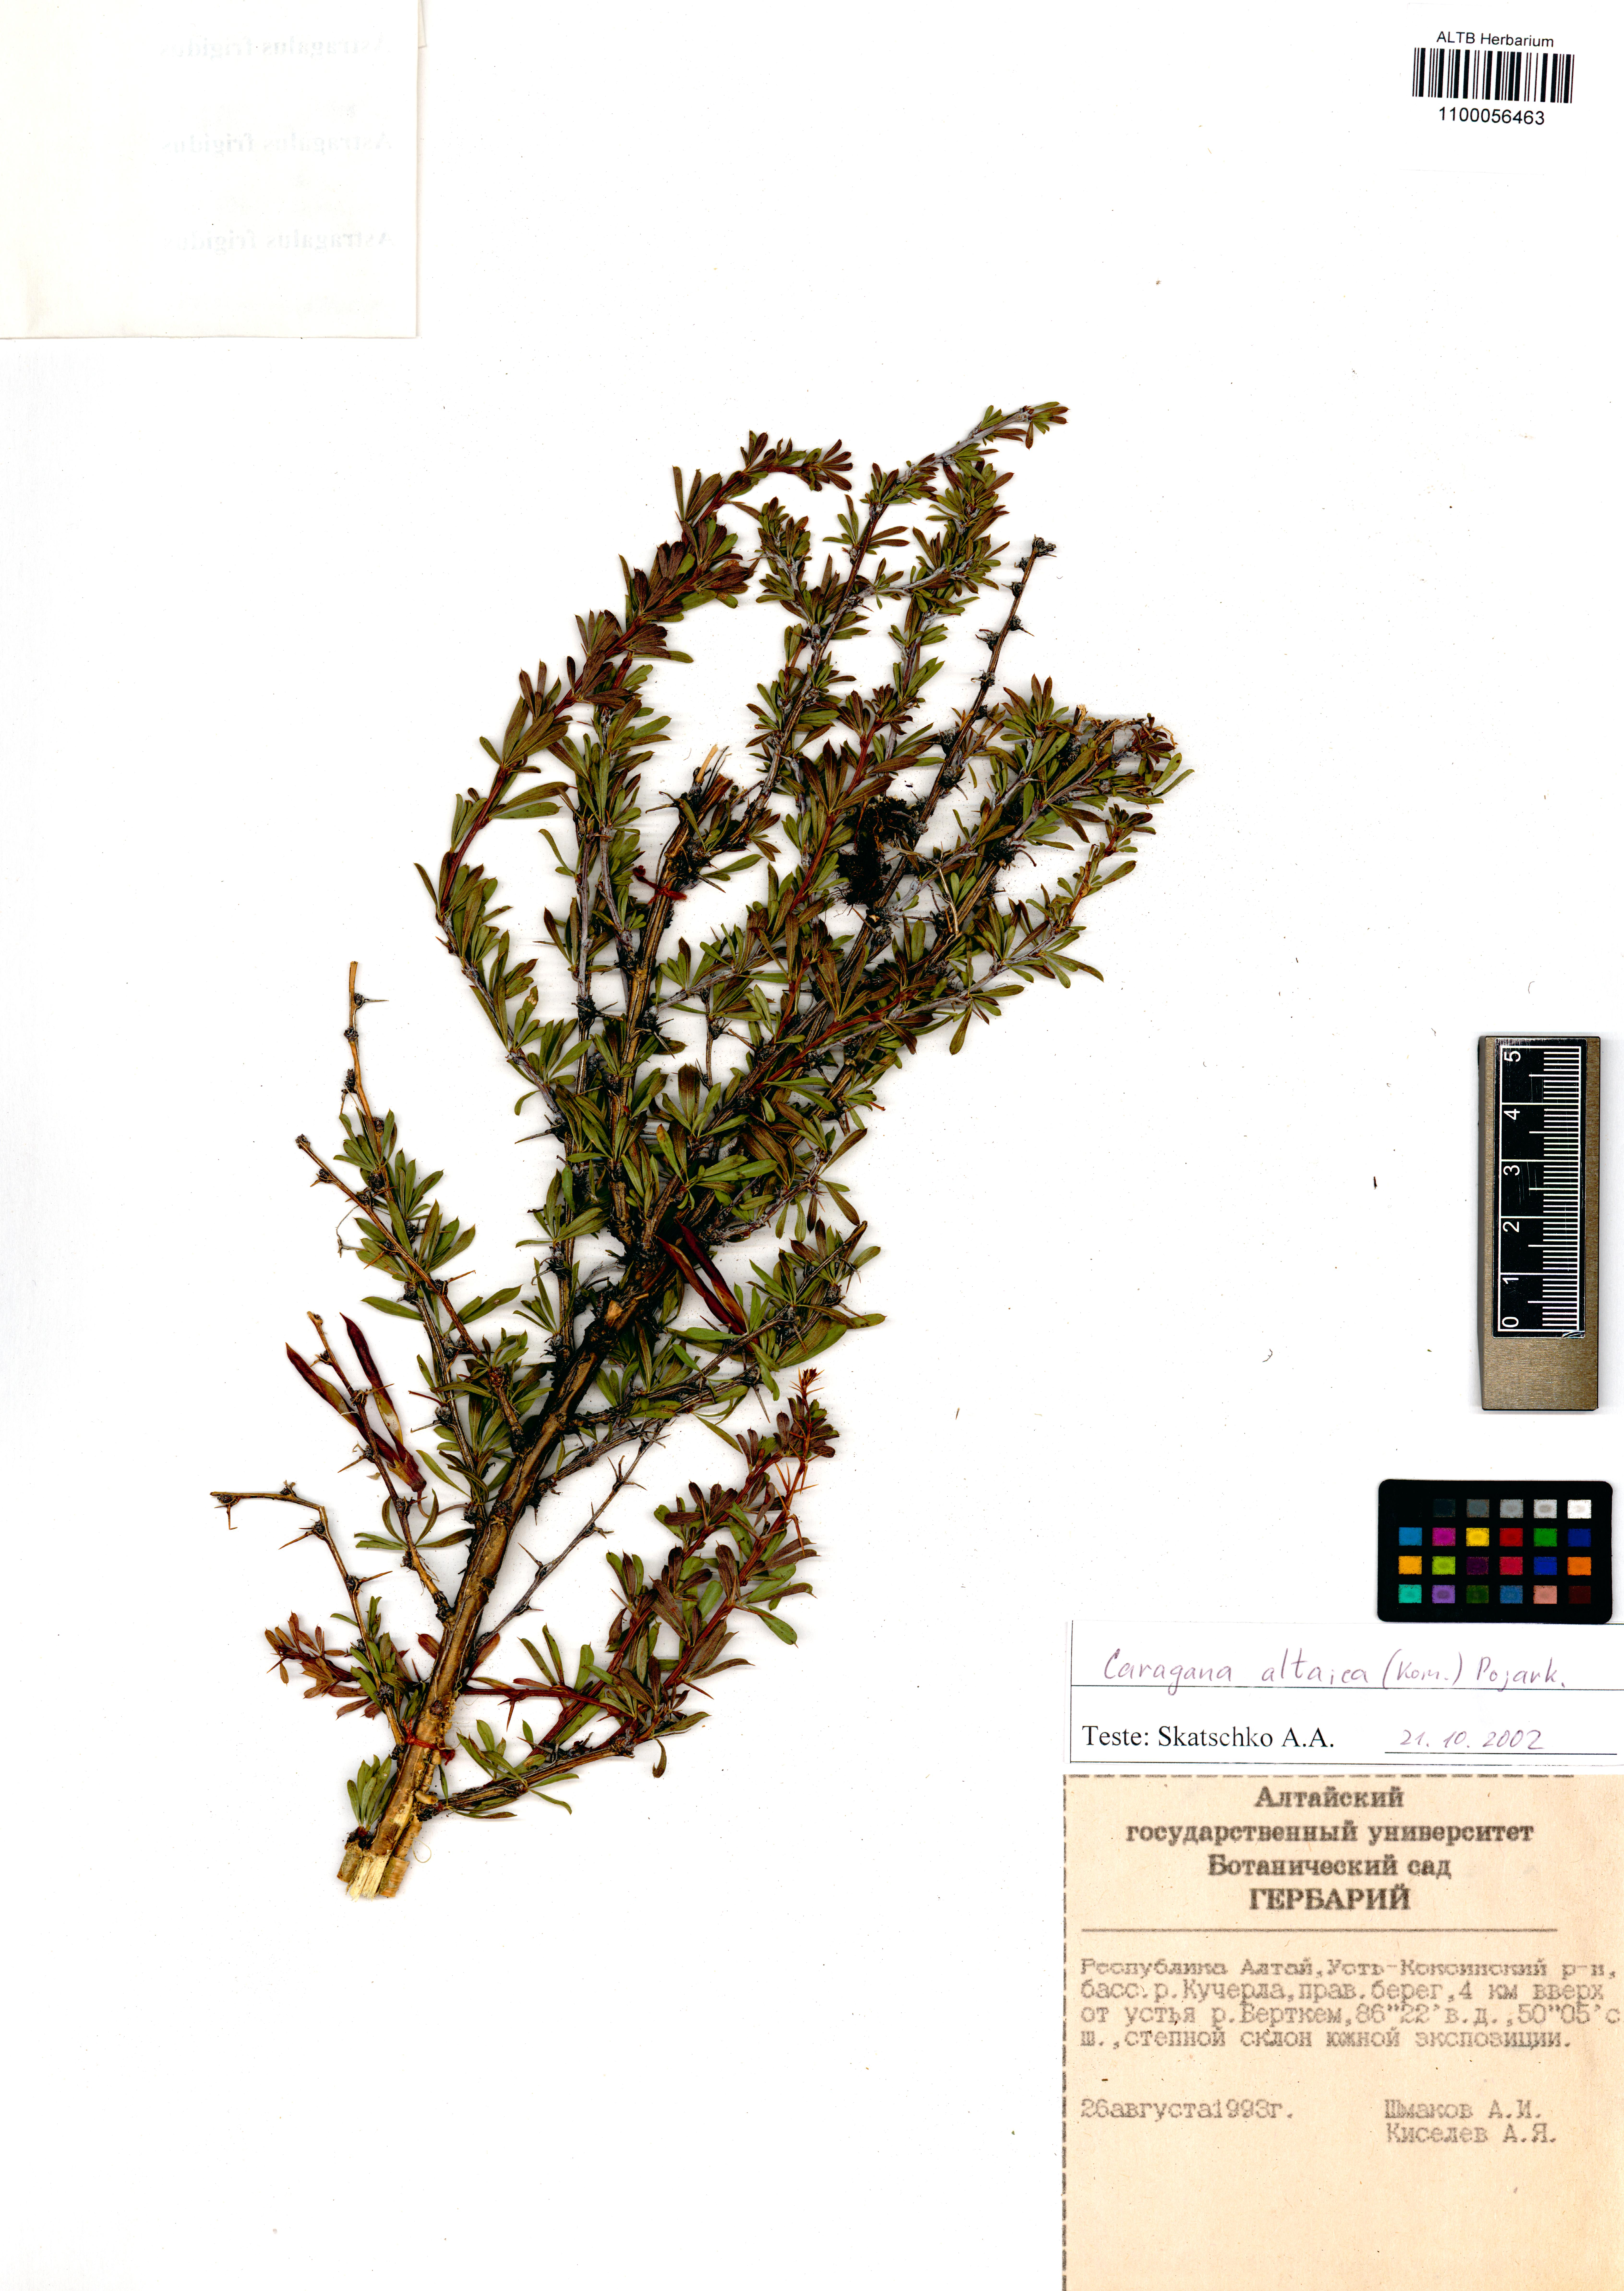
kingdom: Plantae
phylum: Tracheophyta
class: Magnoliopsida
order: Fabales
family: Fabaceae
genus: Caragana
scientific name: Caragana pygmaea
